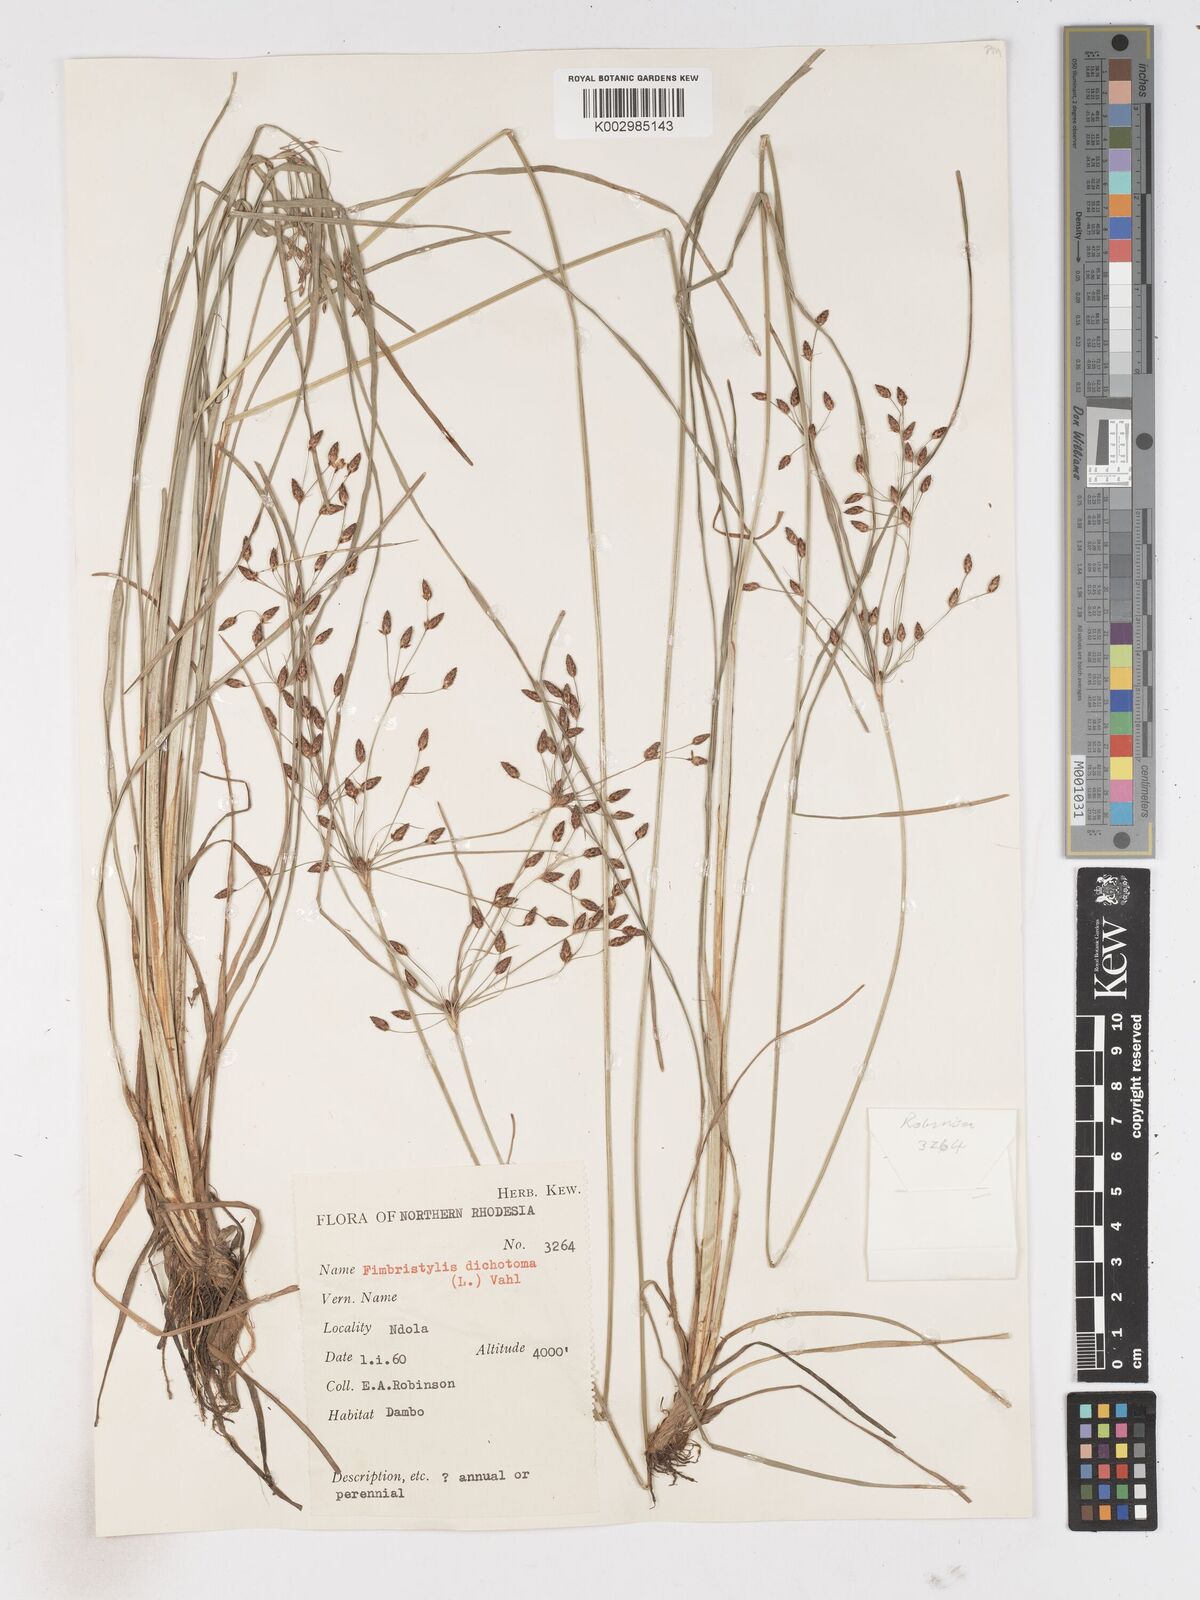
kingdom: Plantae
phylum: Tracheophyta
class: Liliopsida
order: Poales
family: Cyperaceae
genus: Fimbristylis
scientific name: Fimbristylis dichotoma
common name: Forked fimbry
